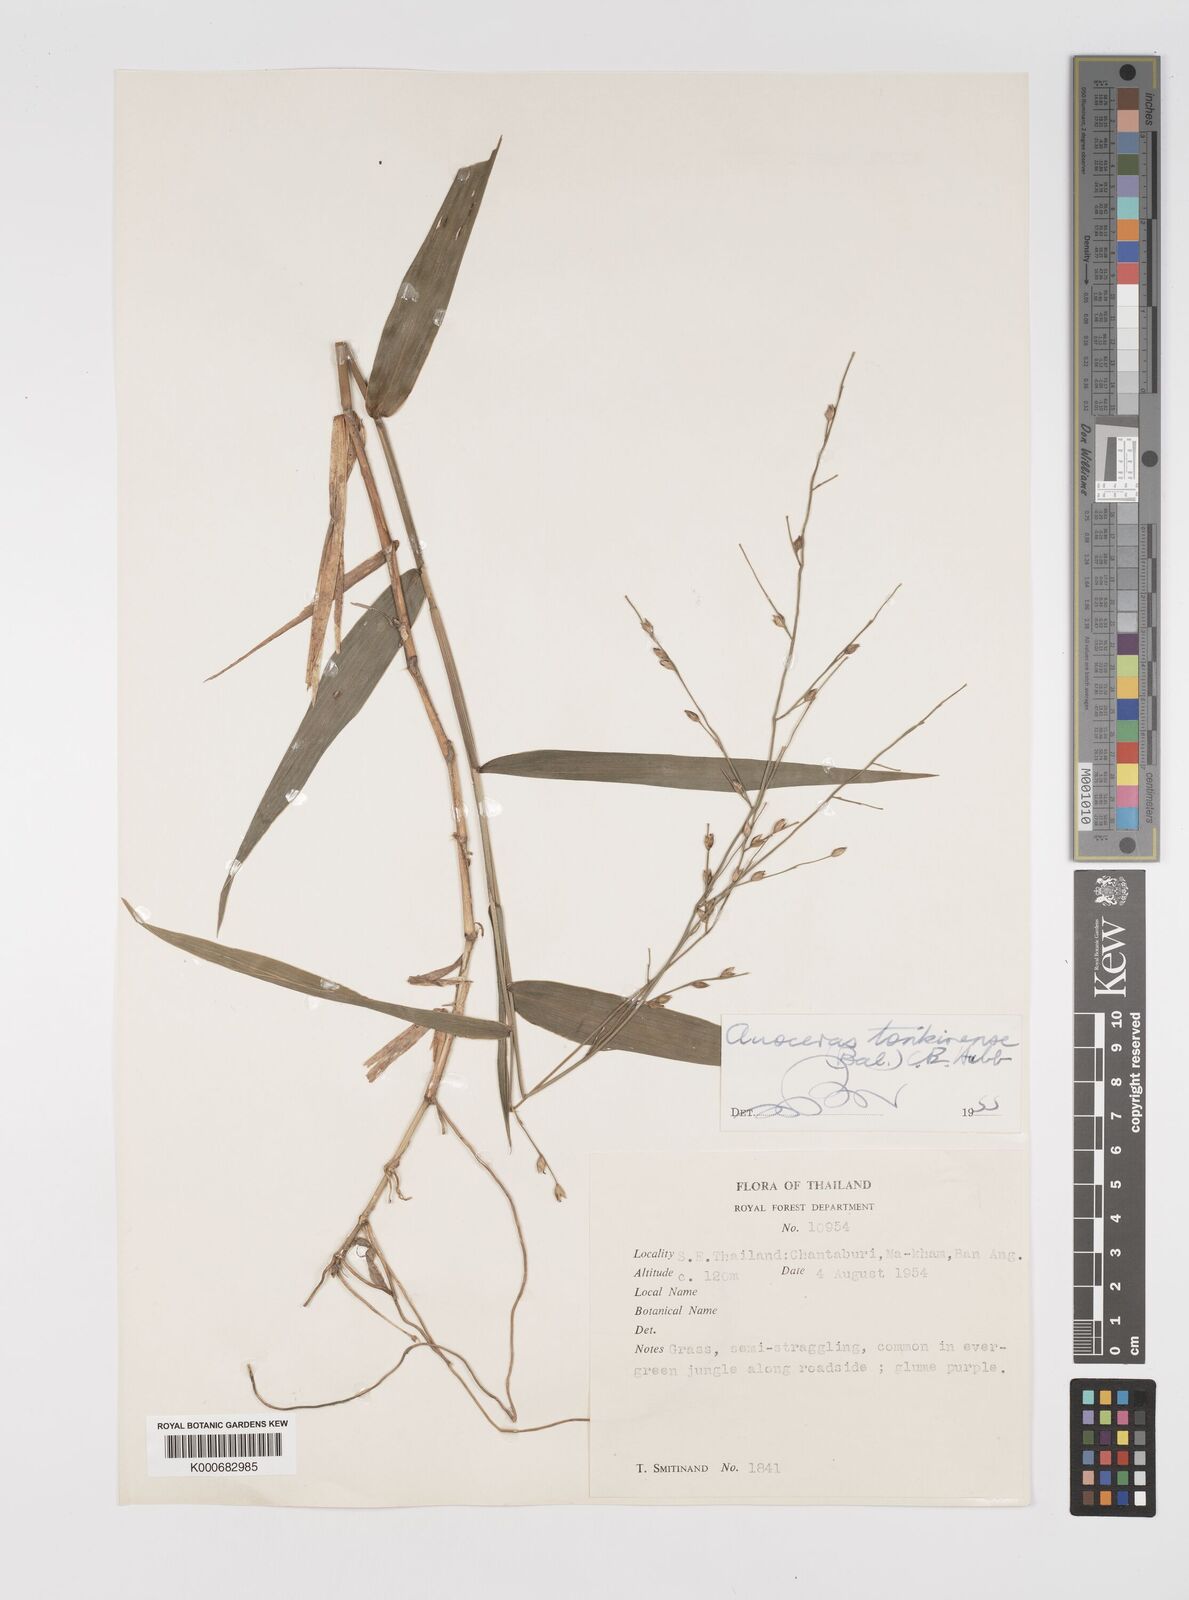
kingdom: Plantae
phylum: Tracheophyta
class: Liliopsida
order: Poales
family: Poaceae
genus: Acroceras
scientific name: Acroceras
